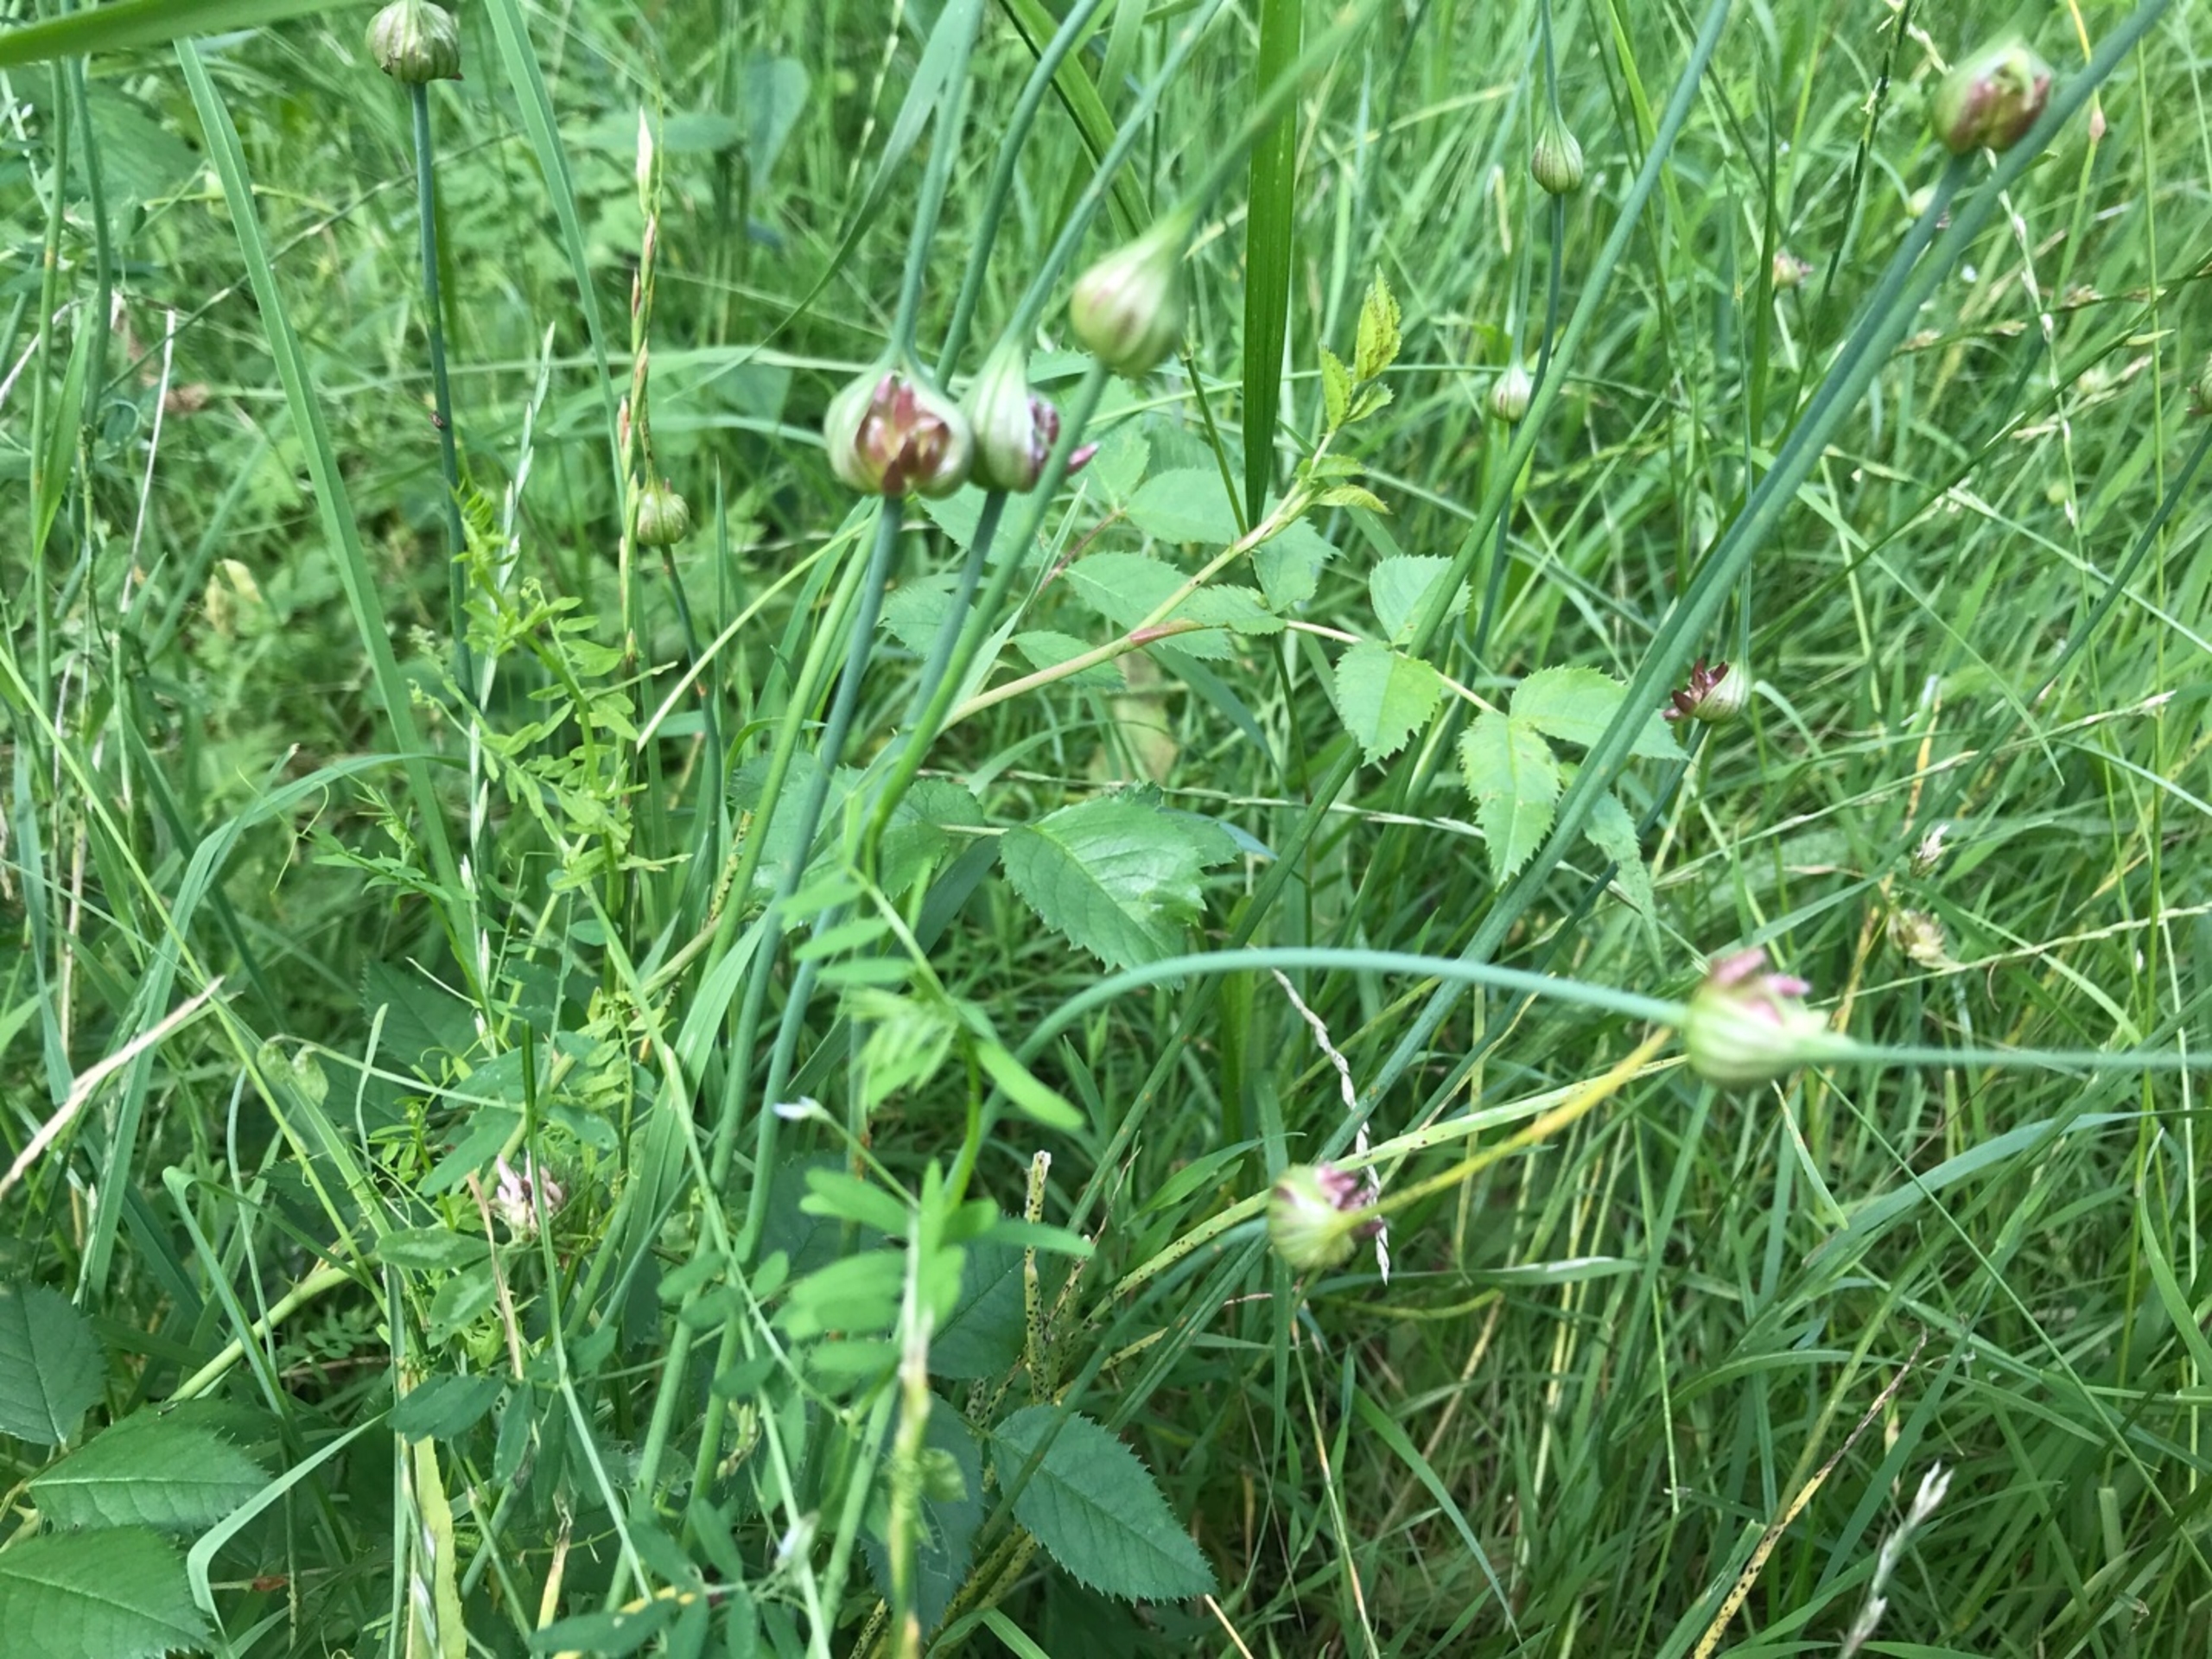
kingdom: Plantae
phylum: Tracheophyta
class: Liliopsida
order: Asparagales
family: Amaryllidaceae
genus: Allium
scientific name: Allium oleraceum
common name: Vild løg
